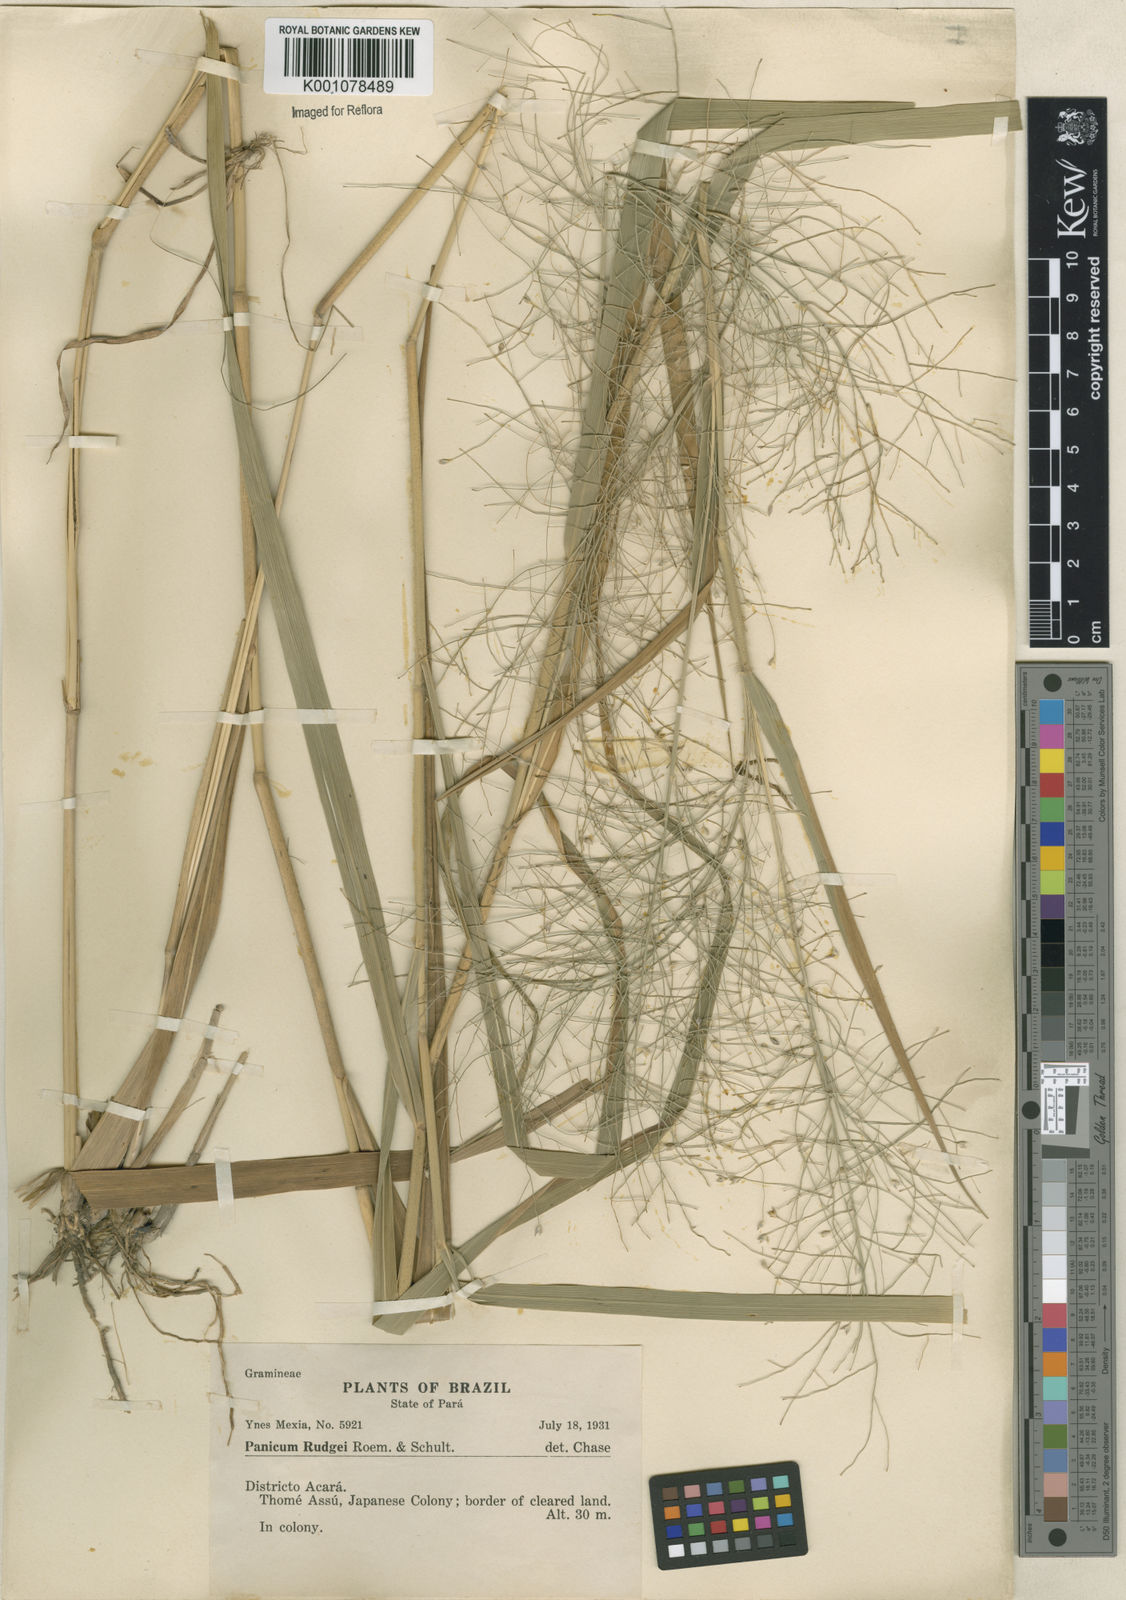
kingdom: Plantae
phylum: Tracheophyta
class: Liliopsida
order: Poales
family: Poaceae
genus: Panicum
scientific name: Panicum rudgei
